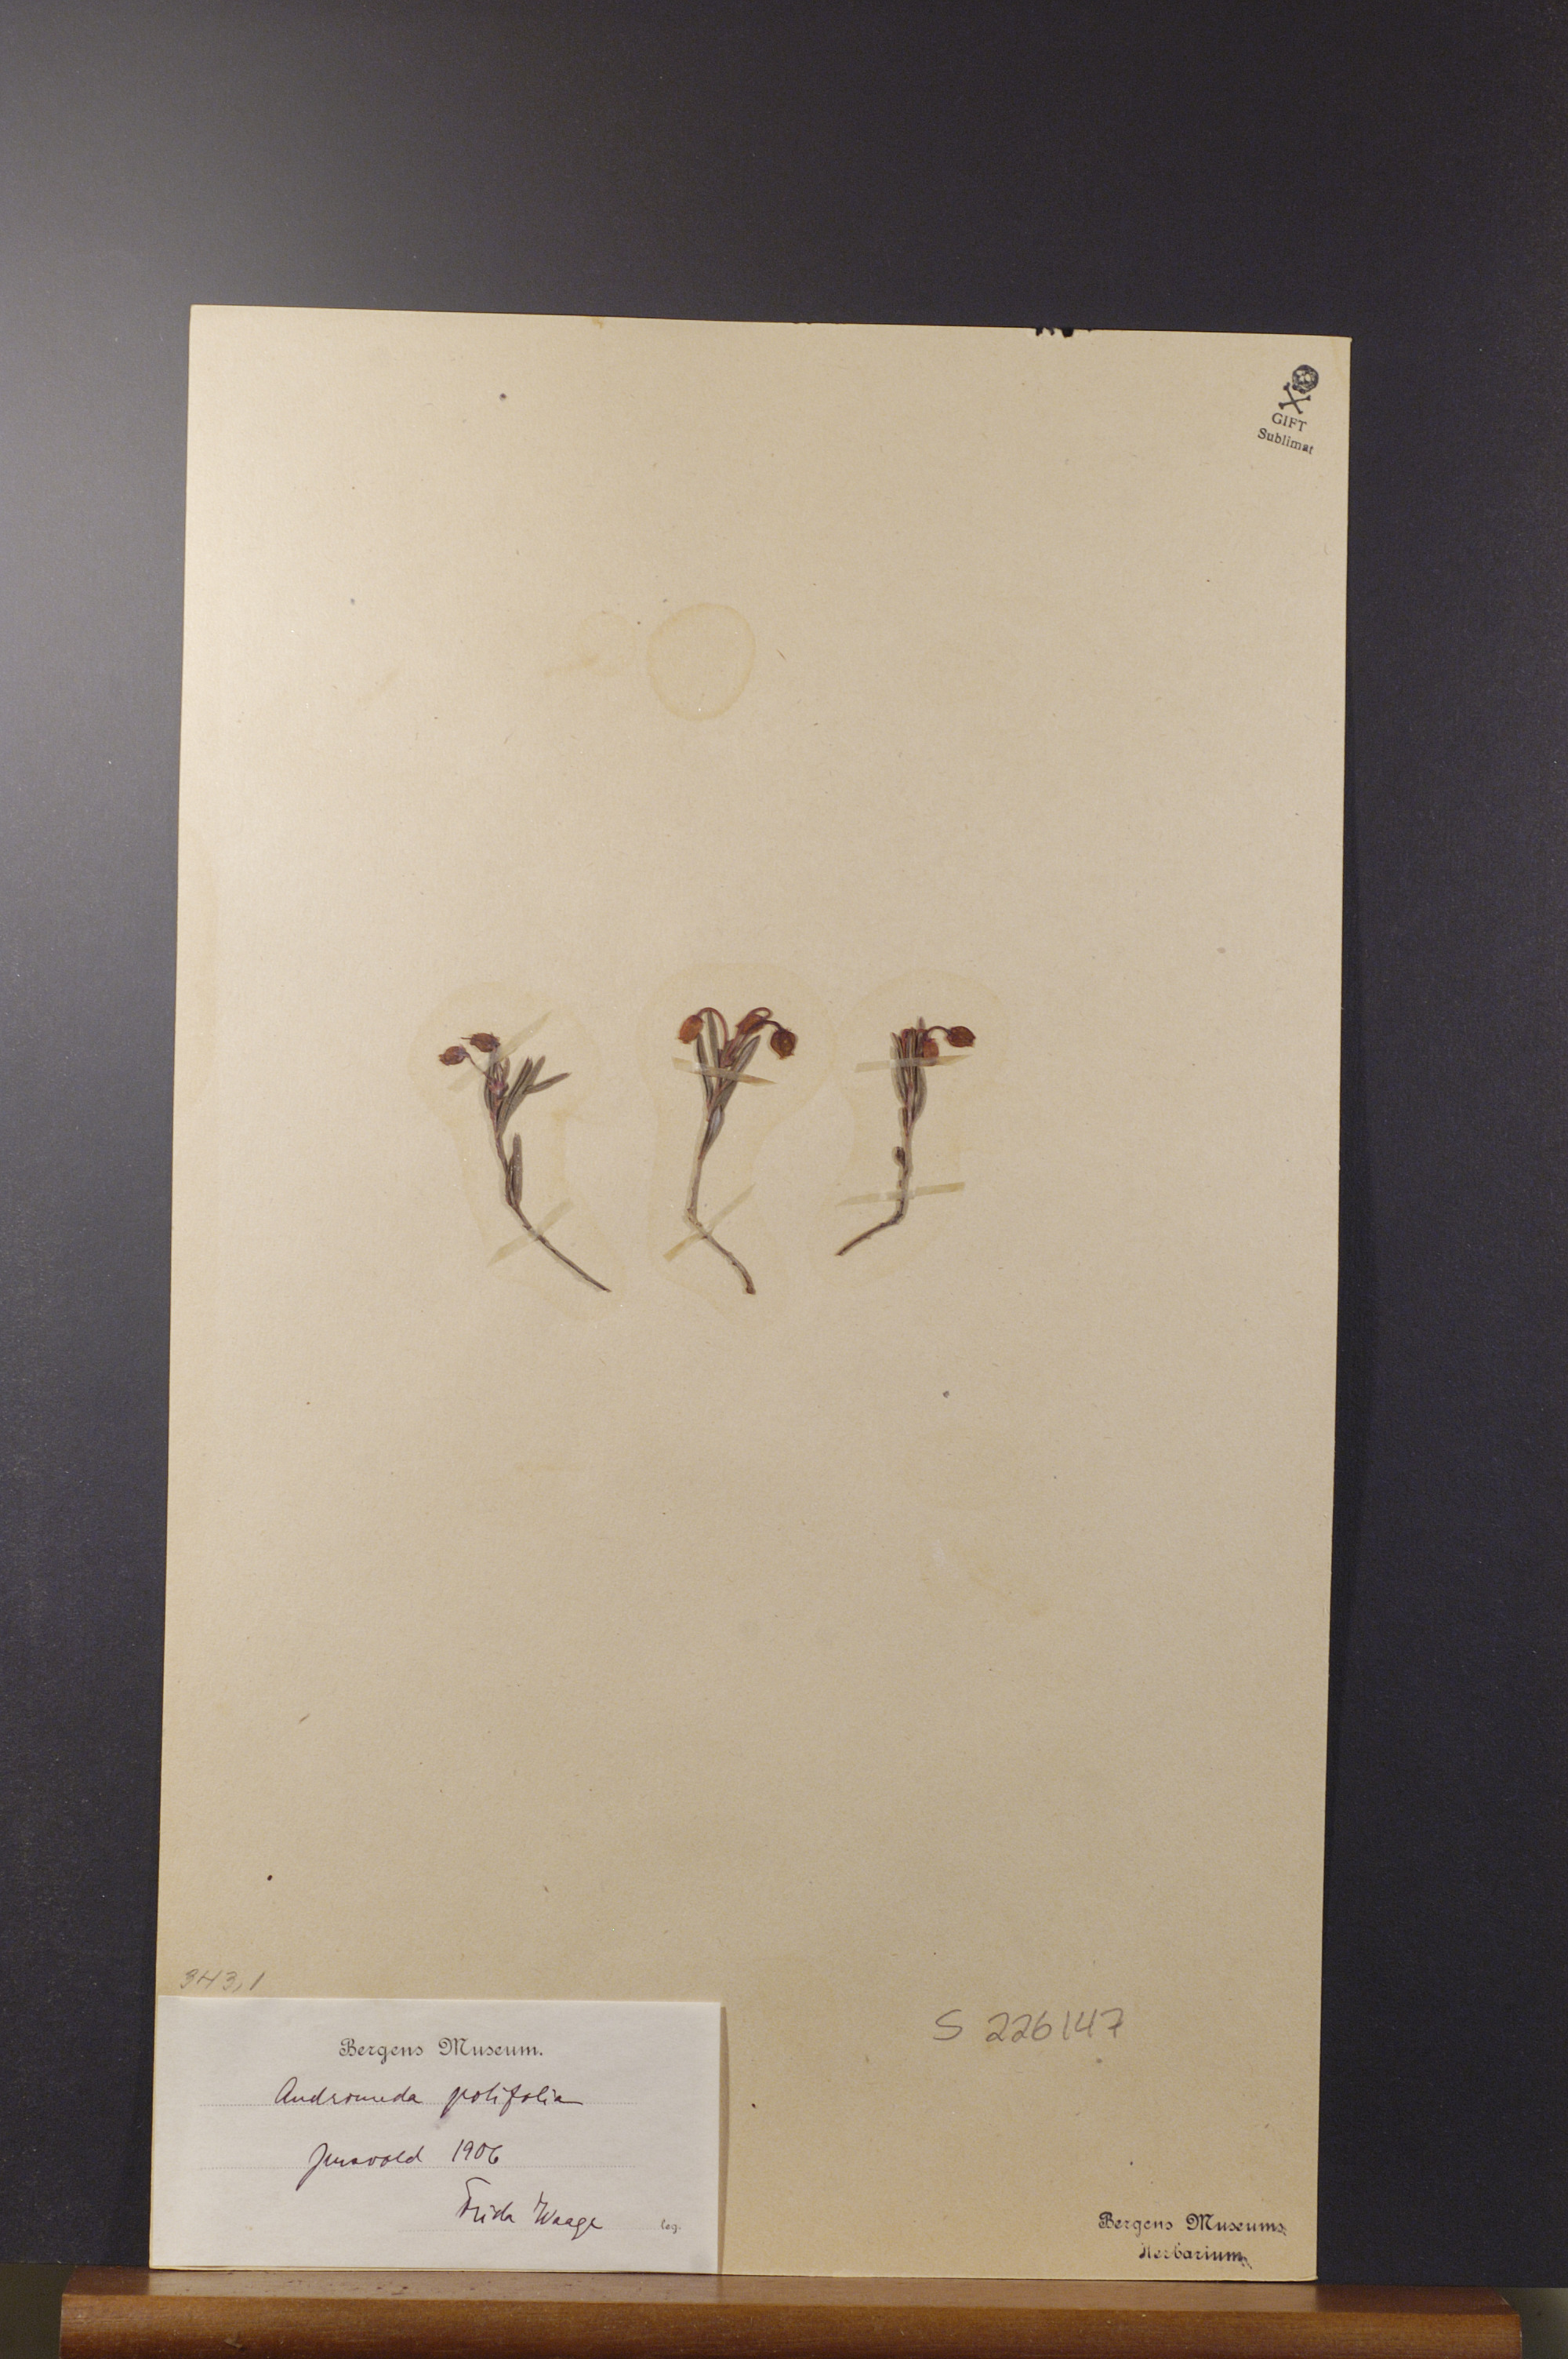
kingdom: Plantae
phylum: Tracheophyta
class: Magnoliopsida
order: Ericales
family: Ericaceae
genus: Andromeda
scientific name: Andromeda polifolia
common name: Bog-rosemary
